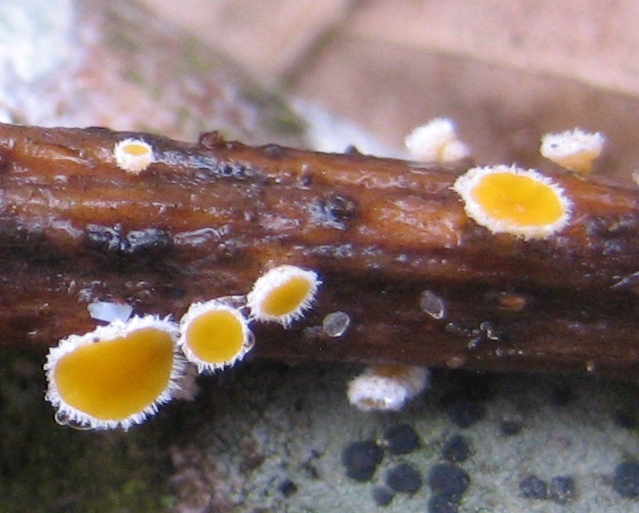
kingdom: Fungi
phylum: Ascomycota
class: Leotiomycetes
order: Helotiales
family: Lachnaceae
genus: Capitotricha
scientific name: Capitotricha bicolor
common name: prægtig frynseskive
